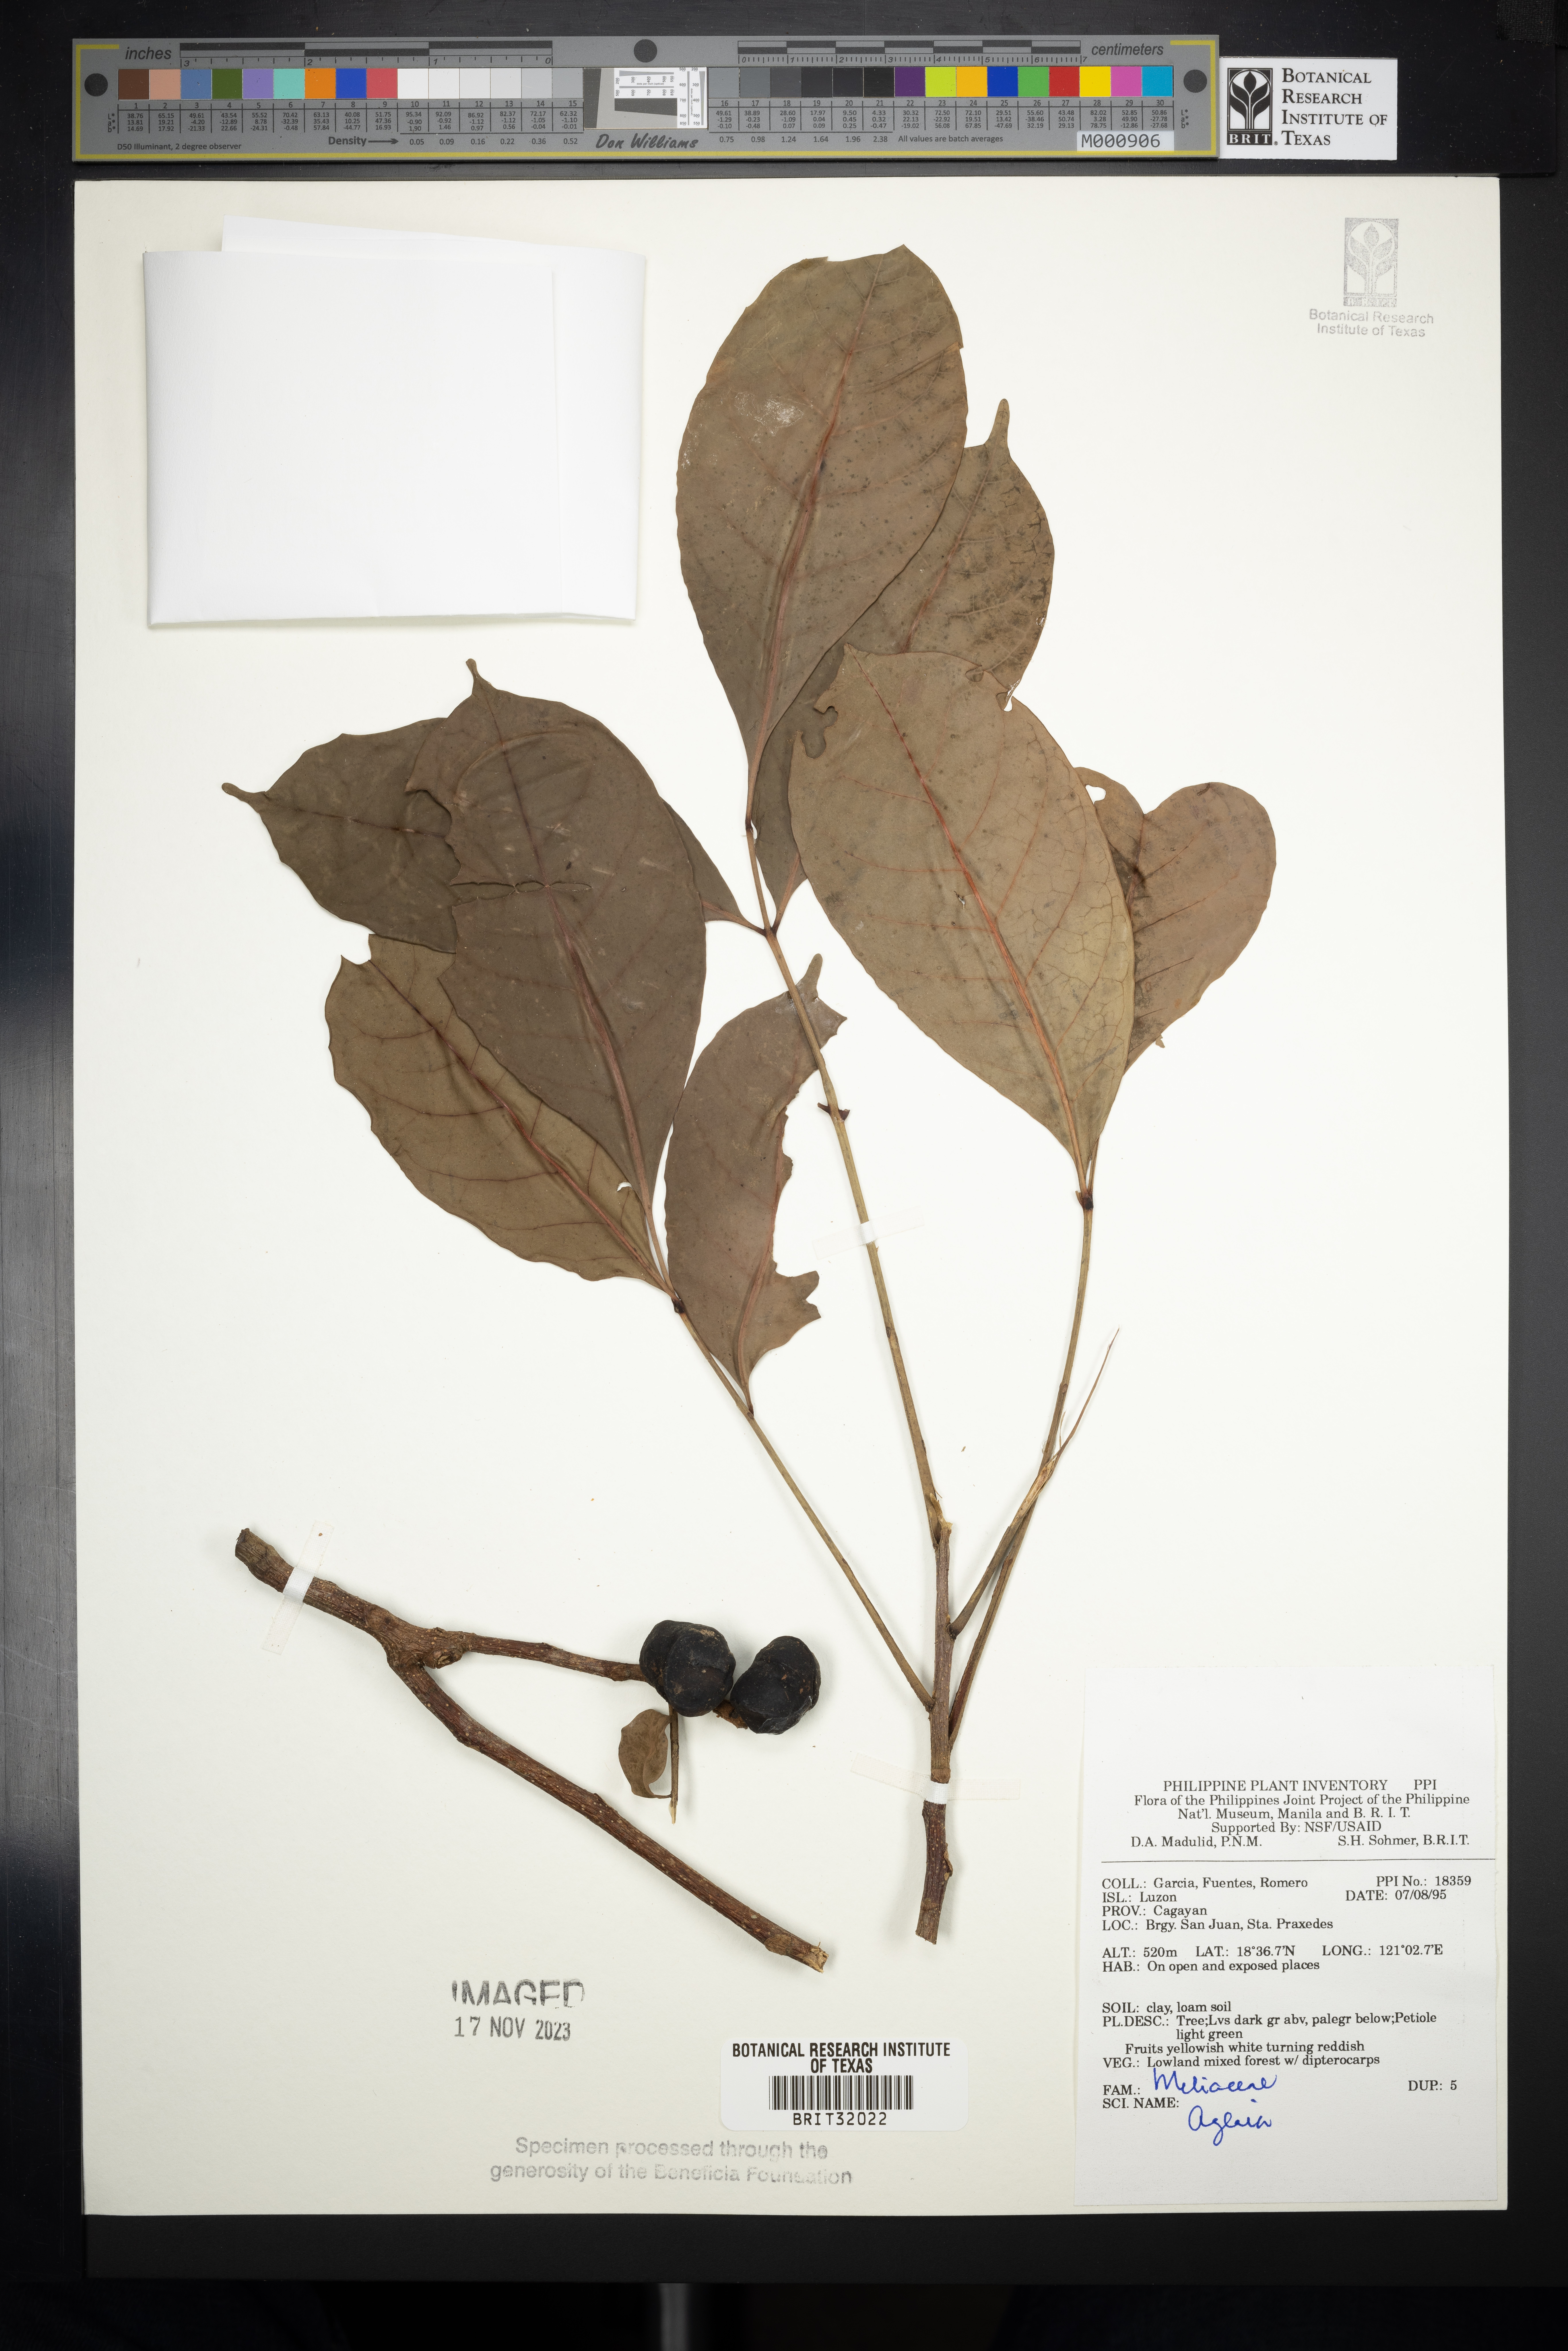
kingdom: Plantae
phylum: Tracheophyta
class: Magnoliopsida
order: Sapindales
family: Meliaceae
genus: Aglaia
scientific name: Aglaia
